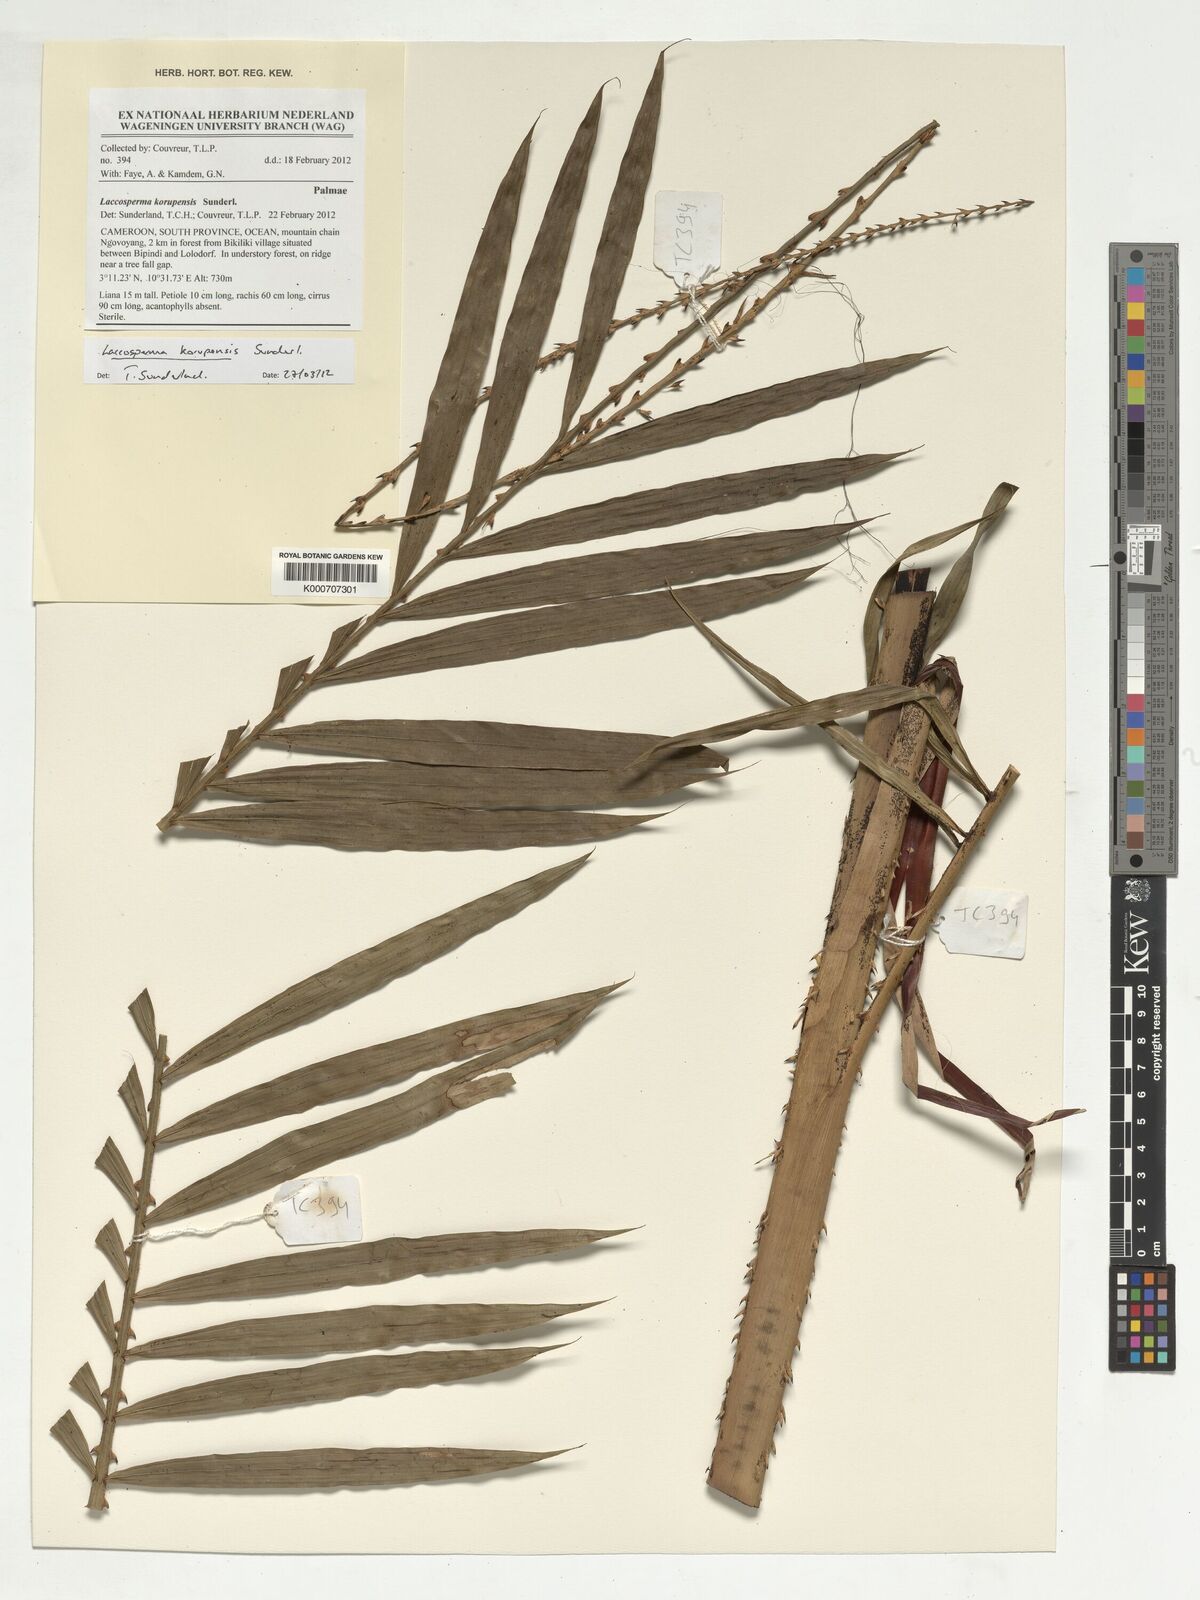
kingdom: Plantae
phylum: Tracheophyta
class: Liliopsida
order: Arecales
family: Arecaceae
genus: Laccosperma
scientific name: Laccosperma korupense
